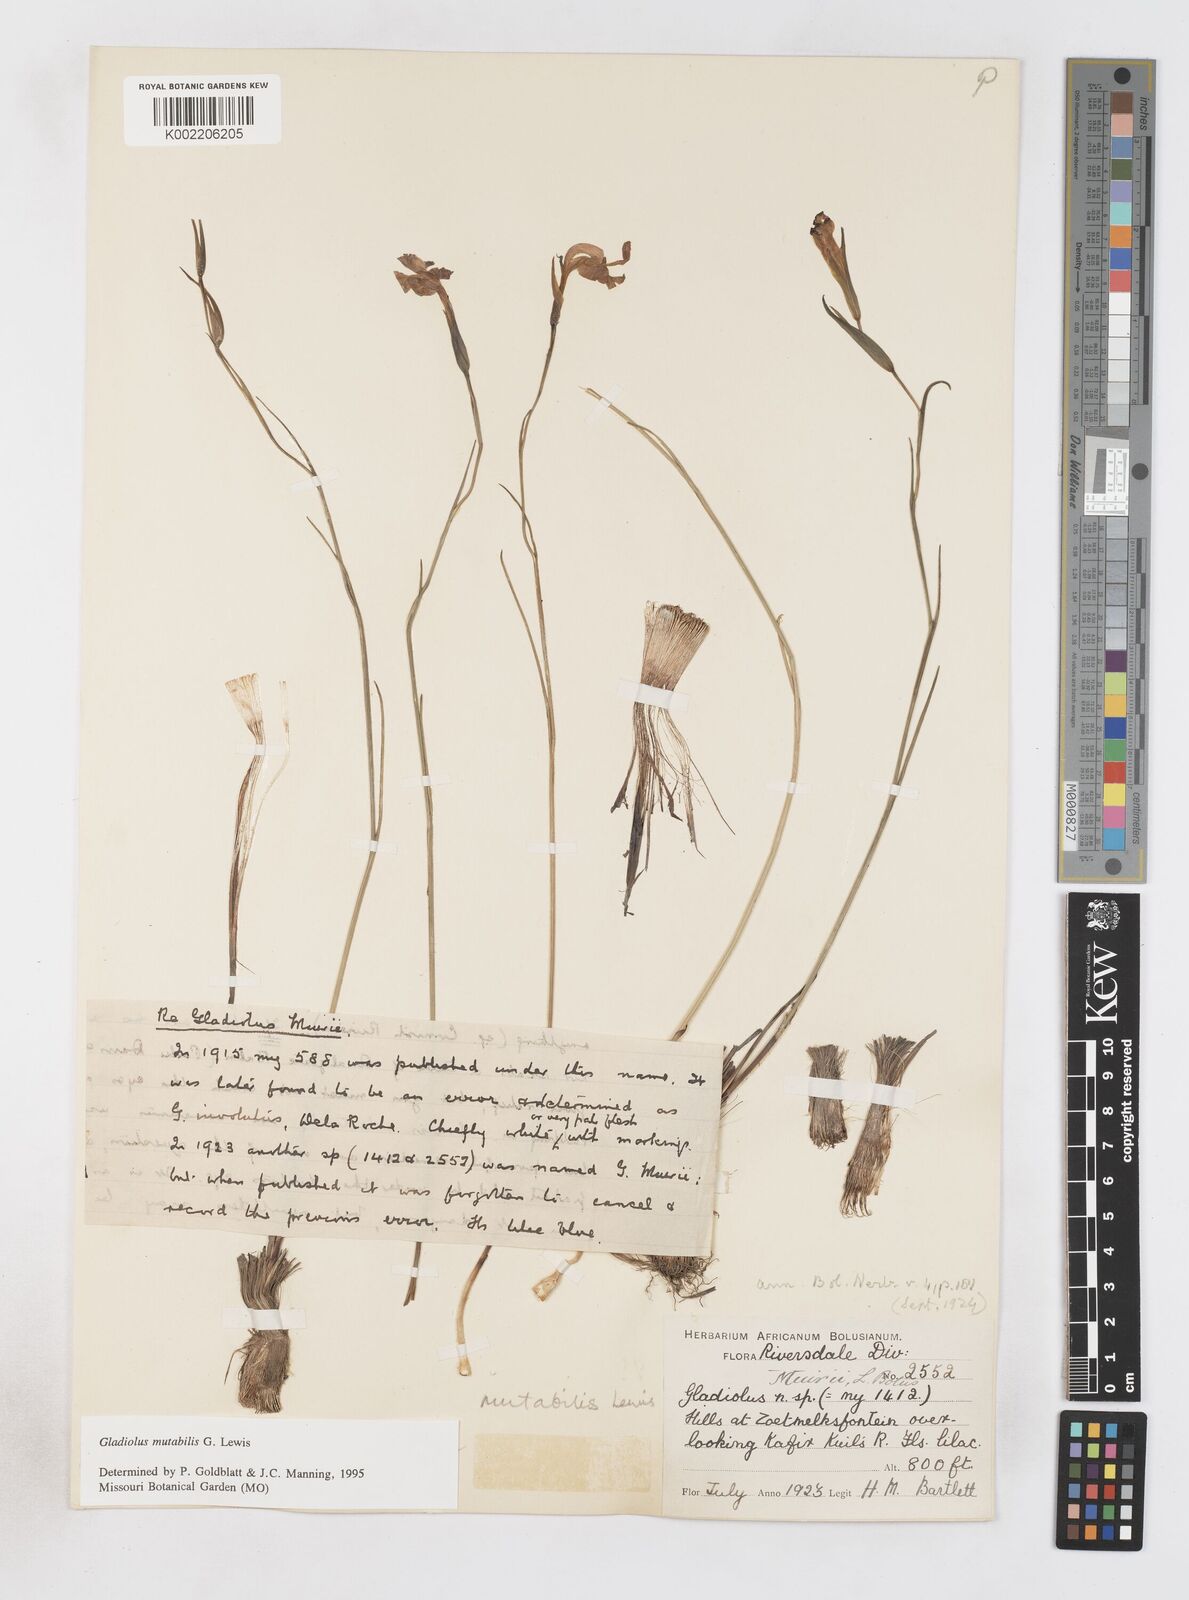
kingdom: Plantae
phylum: Tracheophyta
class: Liliopsida
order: Asparagales
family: Iridaceae
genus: Gladiolus
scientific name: Gladiolus mutabilis
